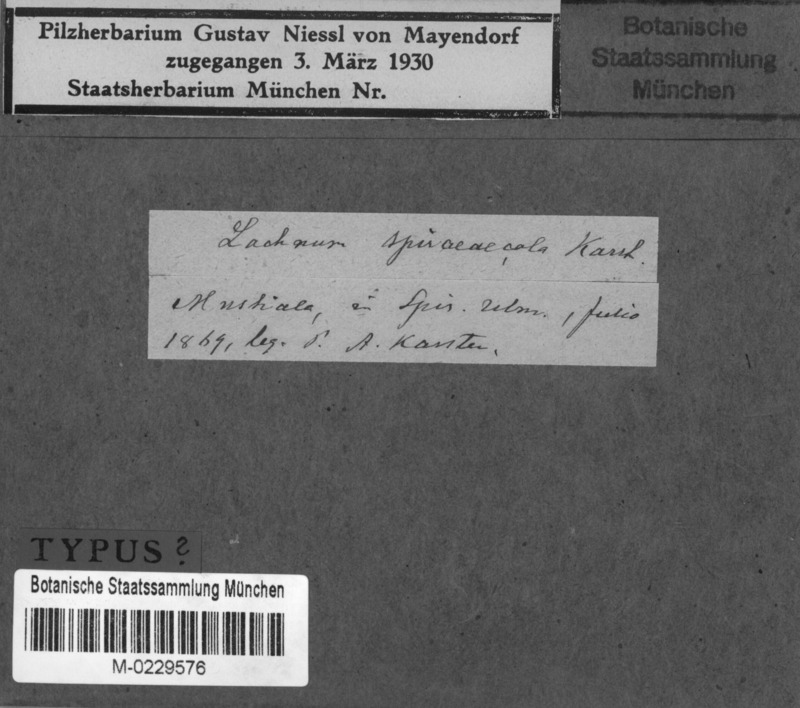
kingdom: Fungi
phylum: Ascomycota
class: Leotiomycetes
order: Helotiales
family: Lachnaceae
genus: Lachnum
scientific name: Lachnum nudipes
